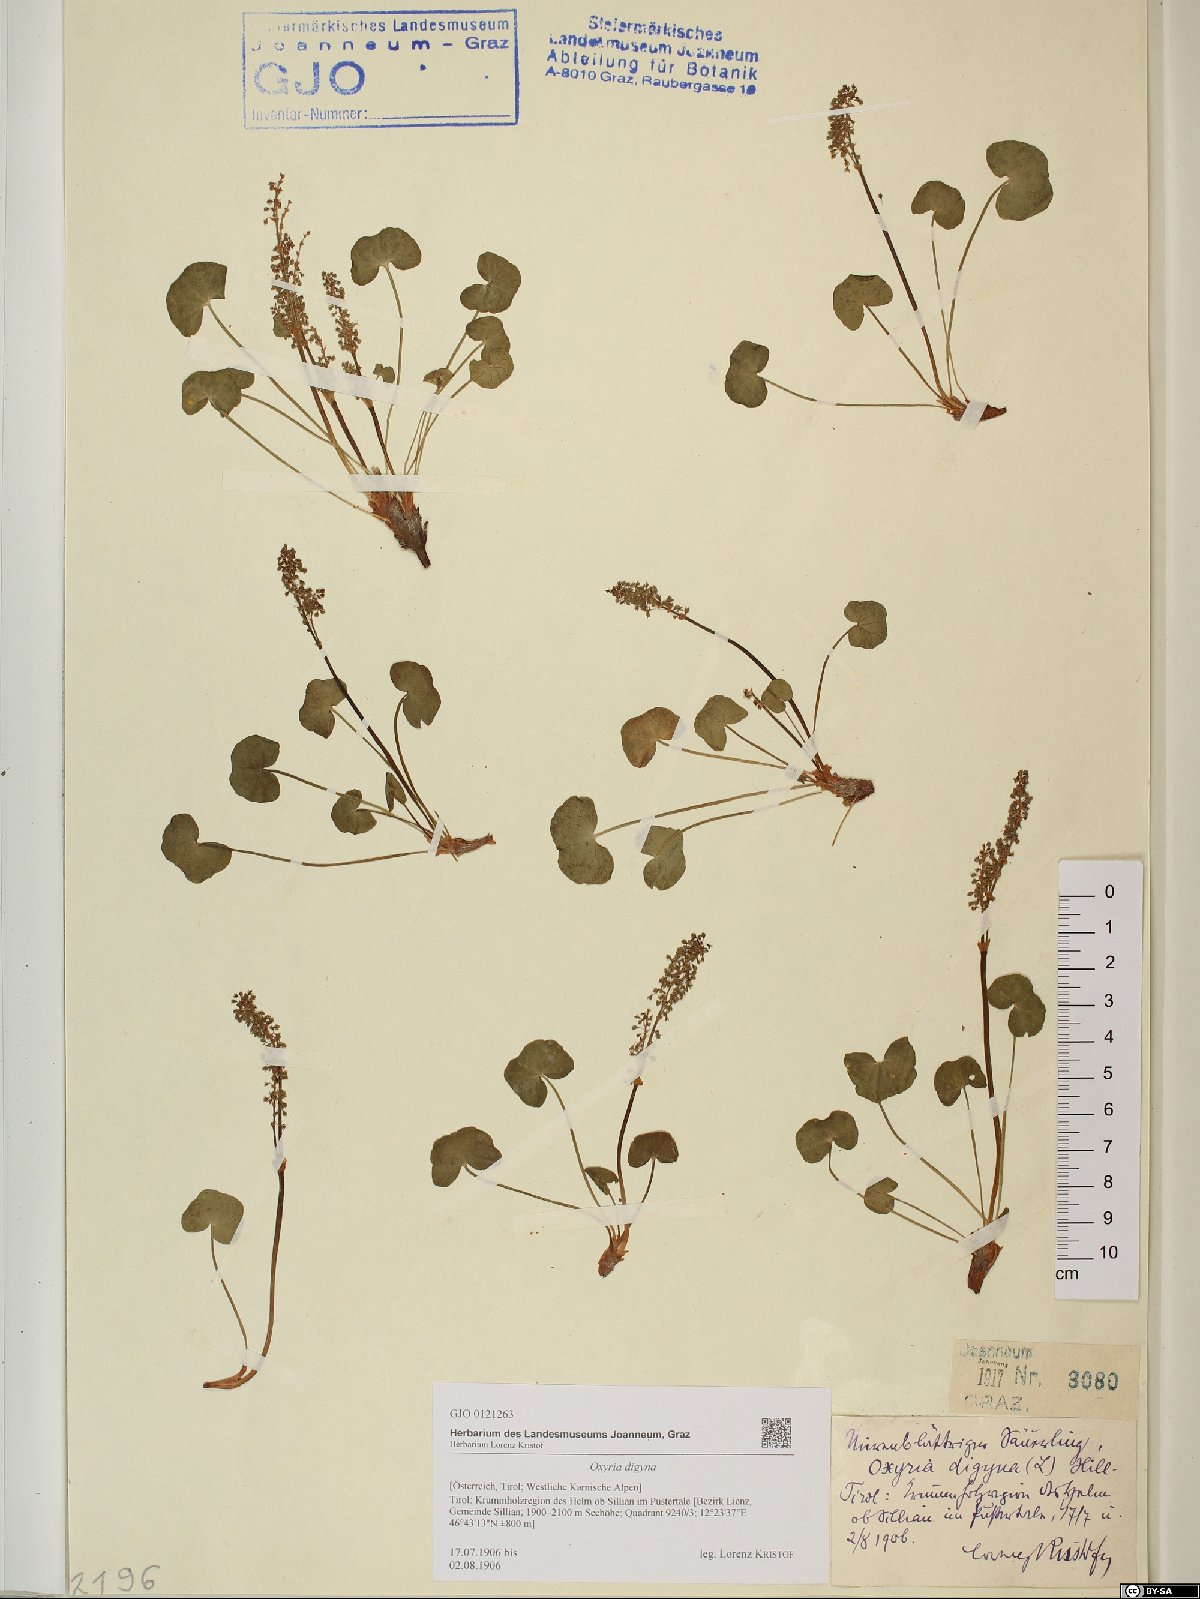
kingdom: Plantae
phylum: Tracheophyta
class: Magnoliopsida
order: Caryophyllales
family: Polygonaceae
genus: Oxyria
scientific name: Oxyria digyna
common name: Alpine mountain-sorrel
